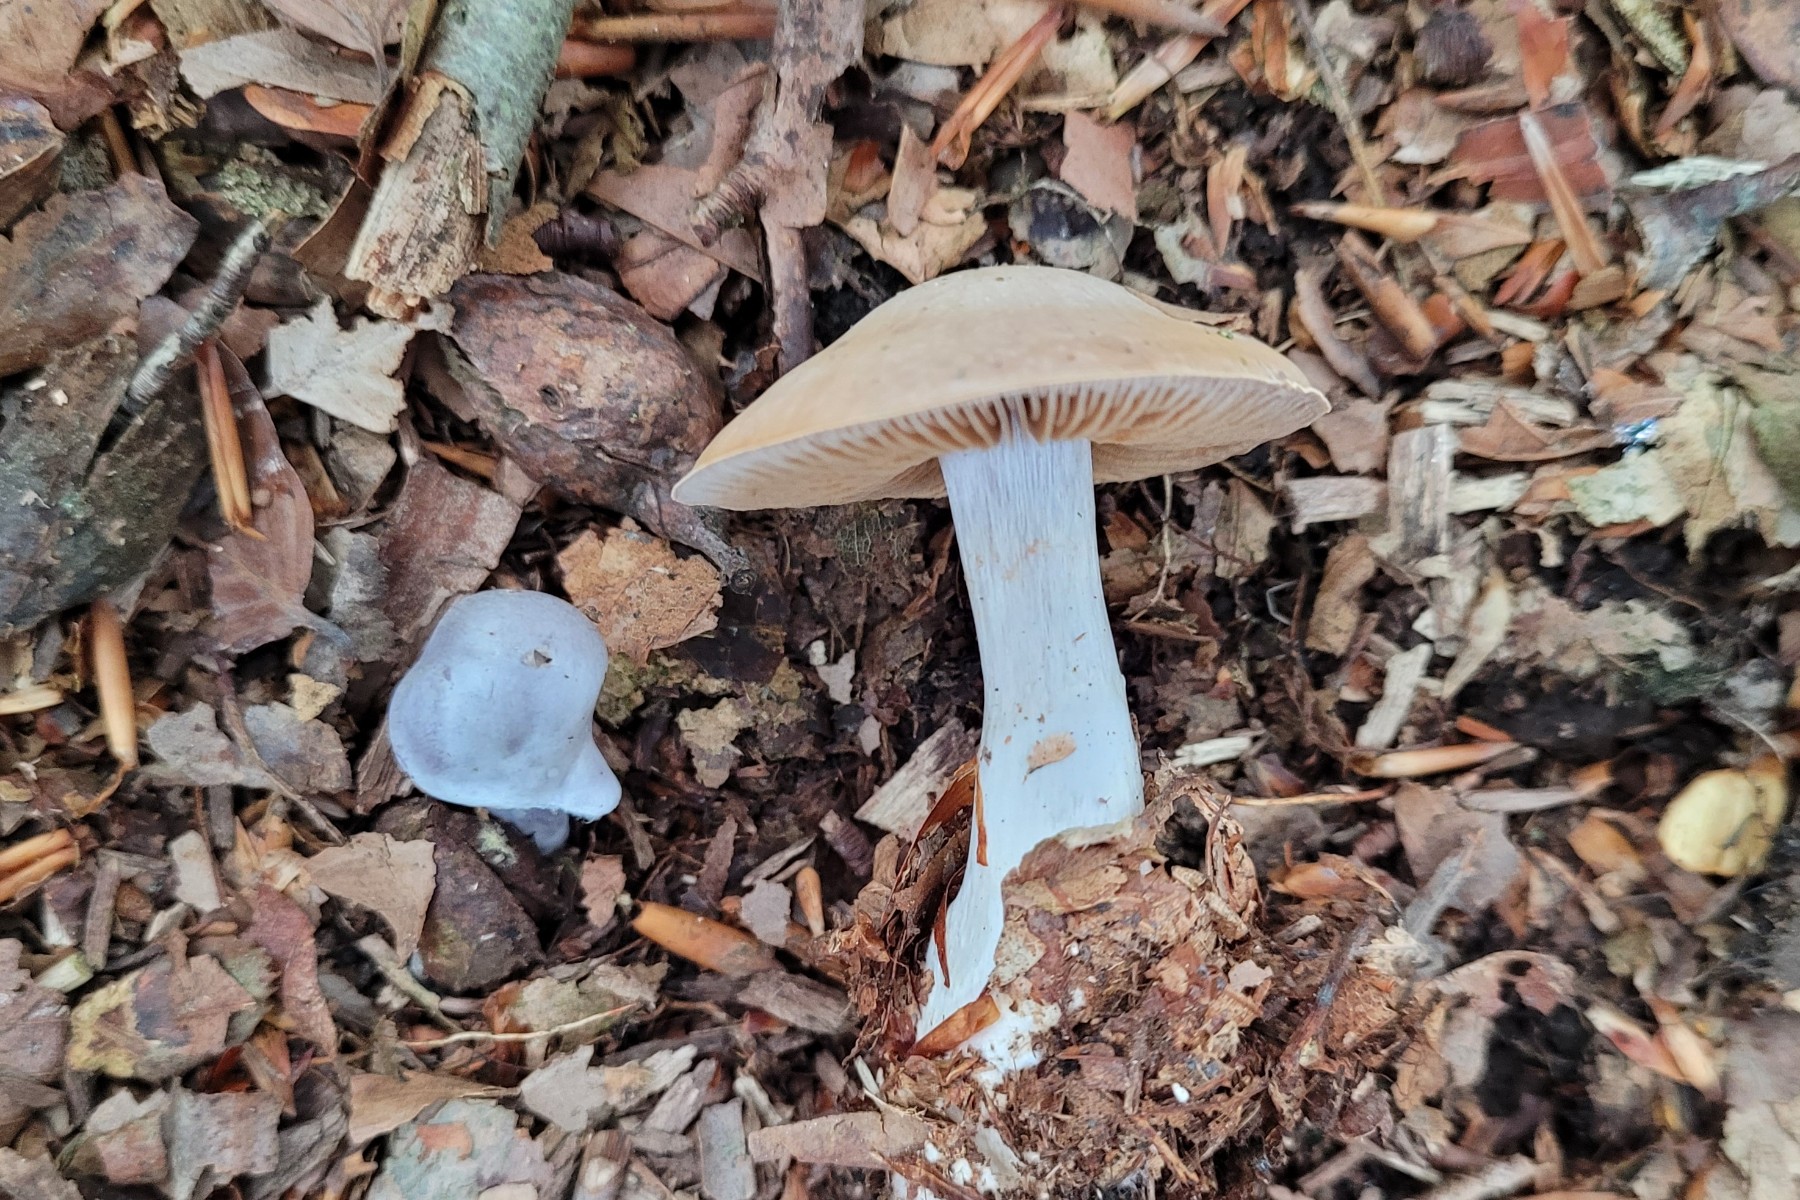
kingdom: Fungi
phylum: Basidiomycota
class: Agaricomycetes
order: Agaricales
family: Cortinariaceae
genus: Cortinarius
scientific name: Cortinarius alboviolaceus
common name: lysviolet slørhat
